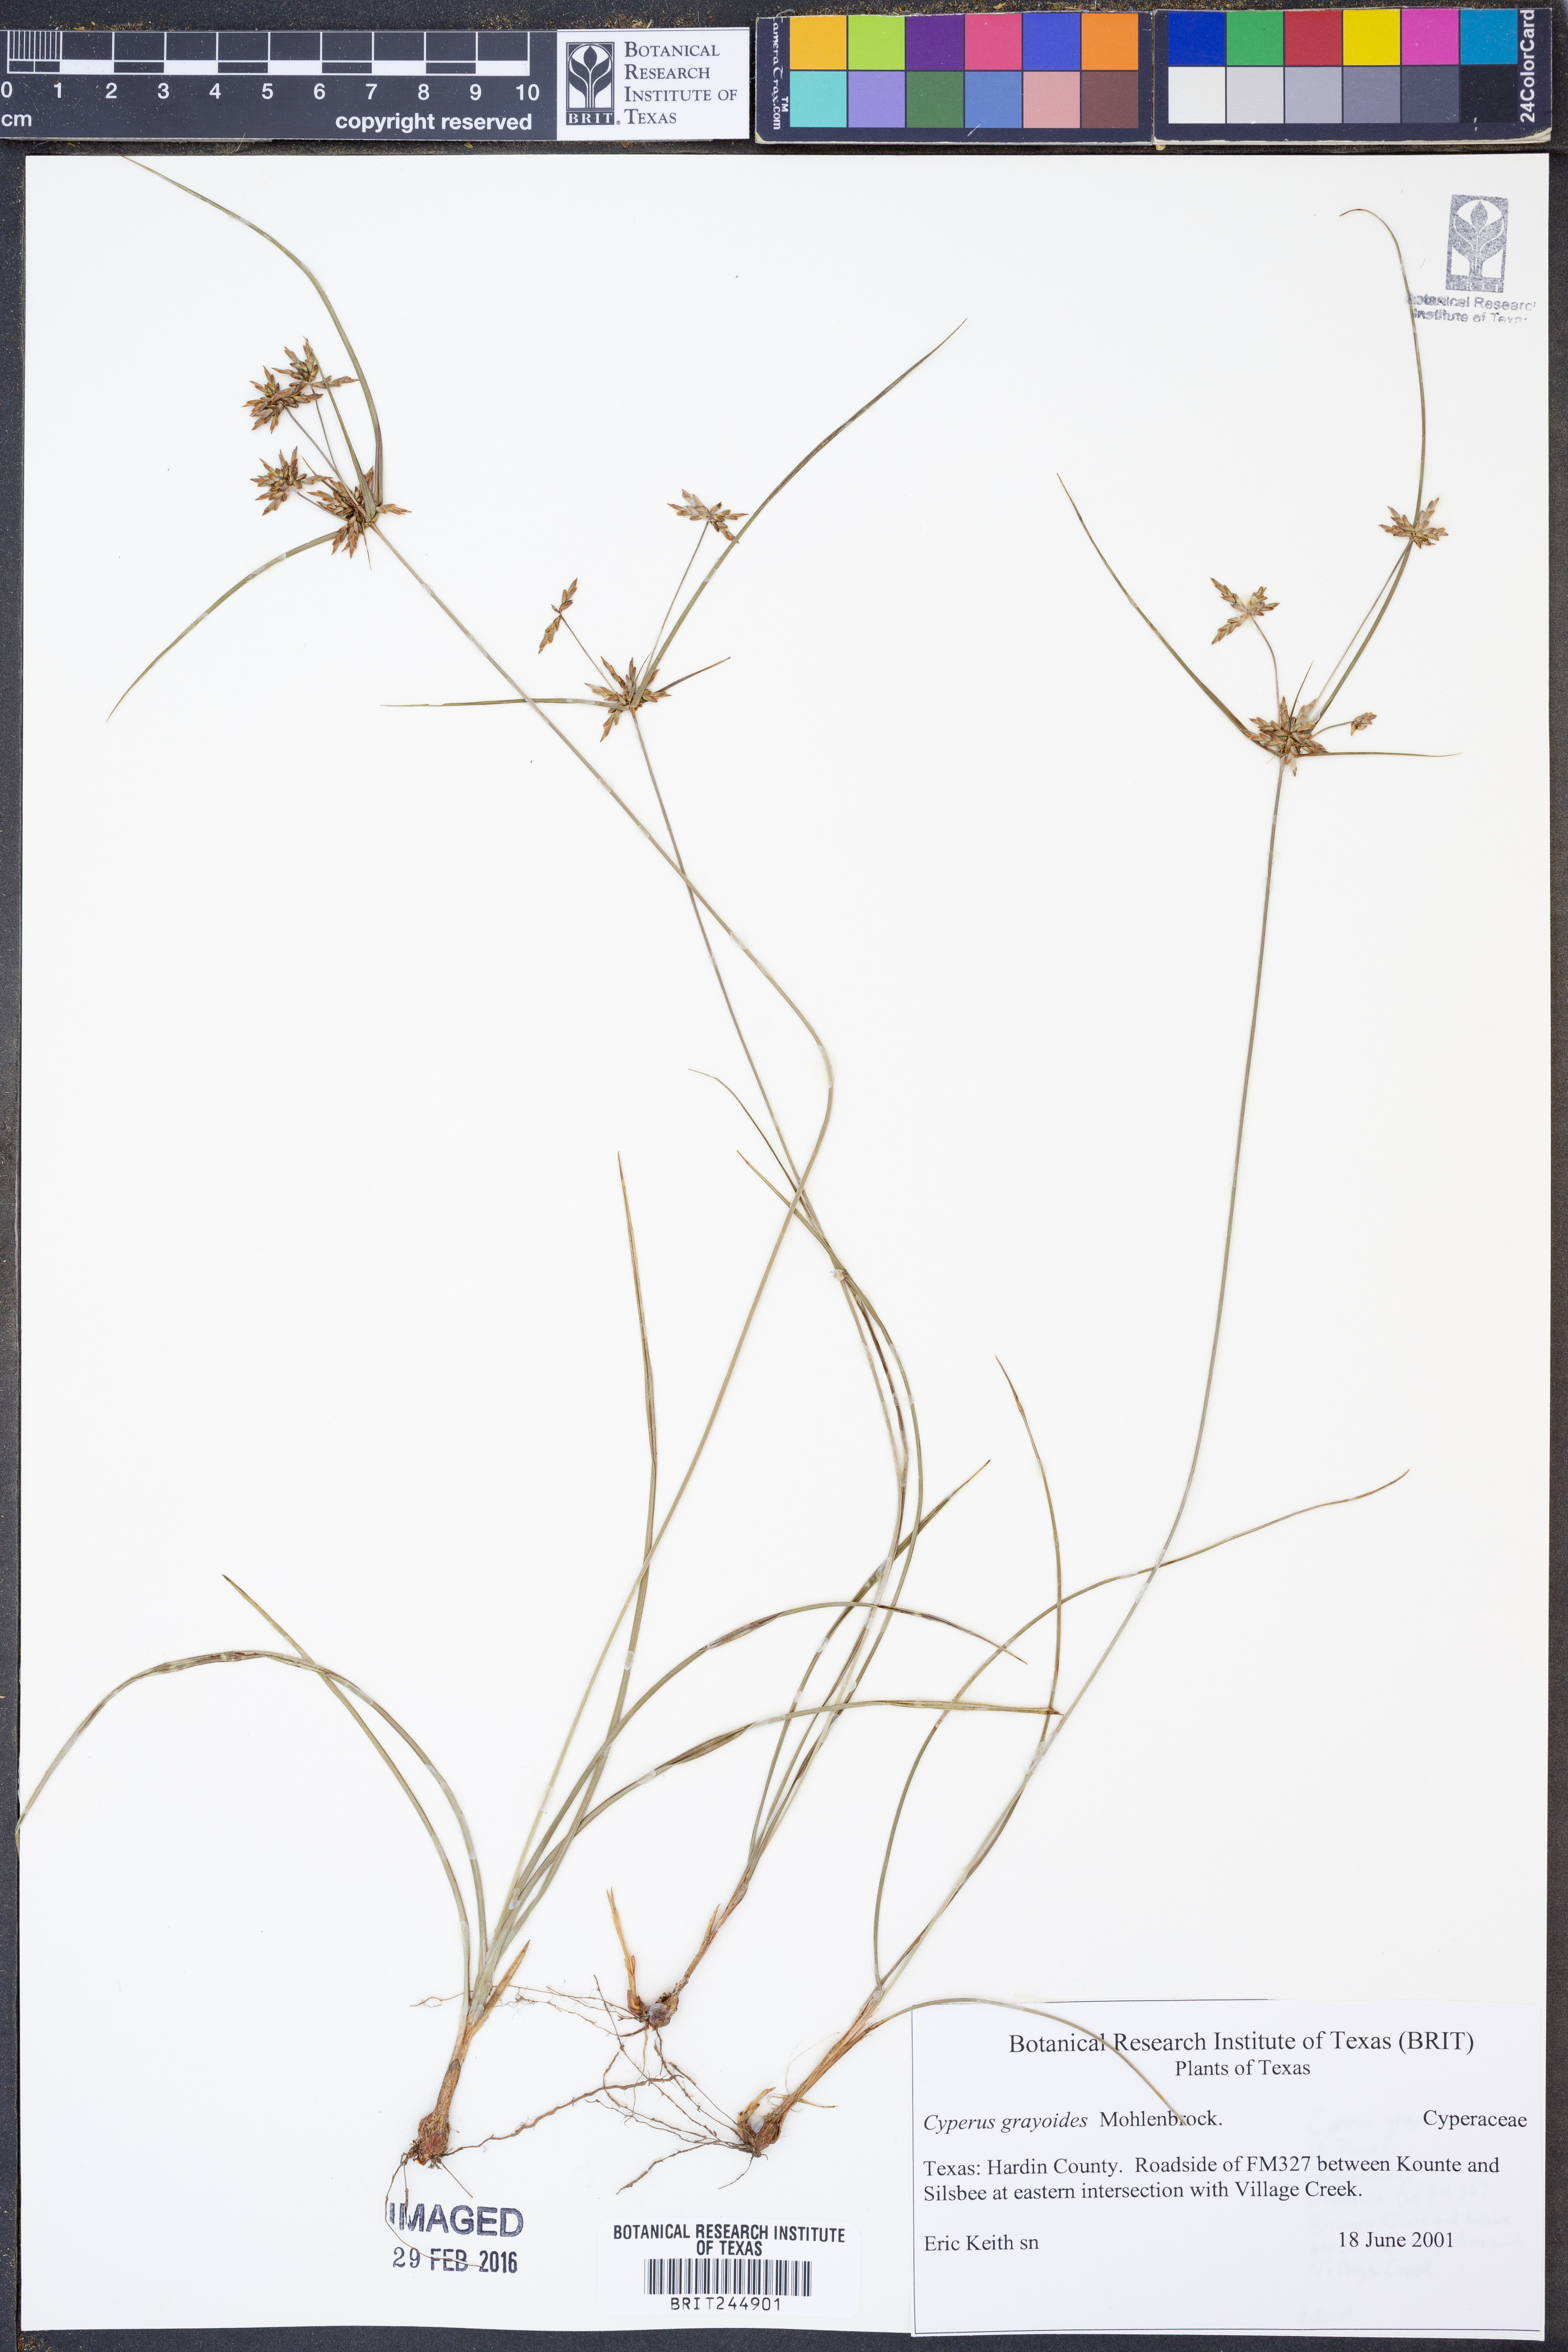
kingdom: Plantae
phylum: Tracheophyta
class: Liliopsida
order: Poales
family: Cyperaceae
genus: Cyperus
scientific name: Cyperus grayioides
